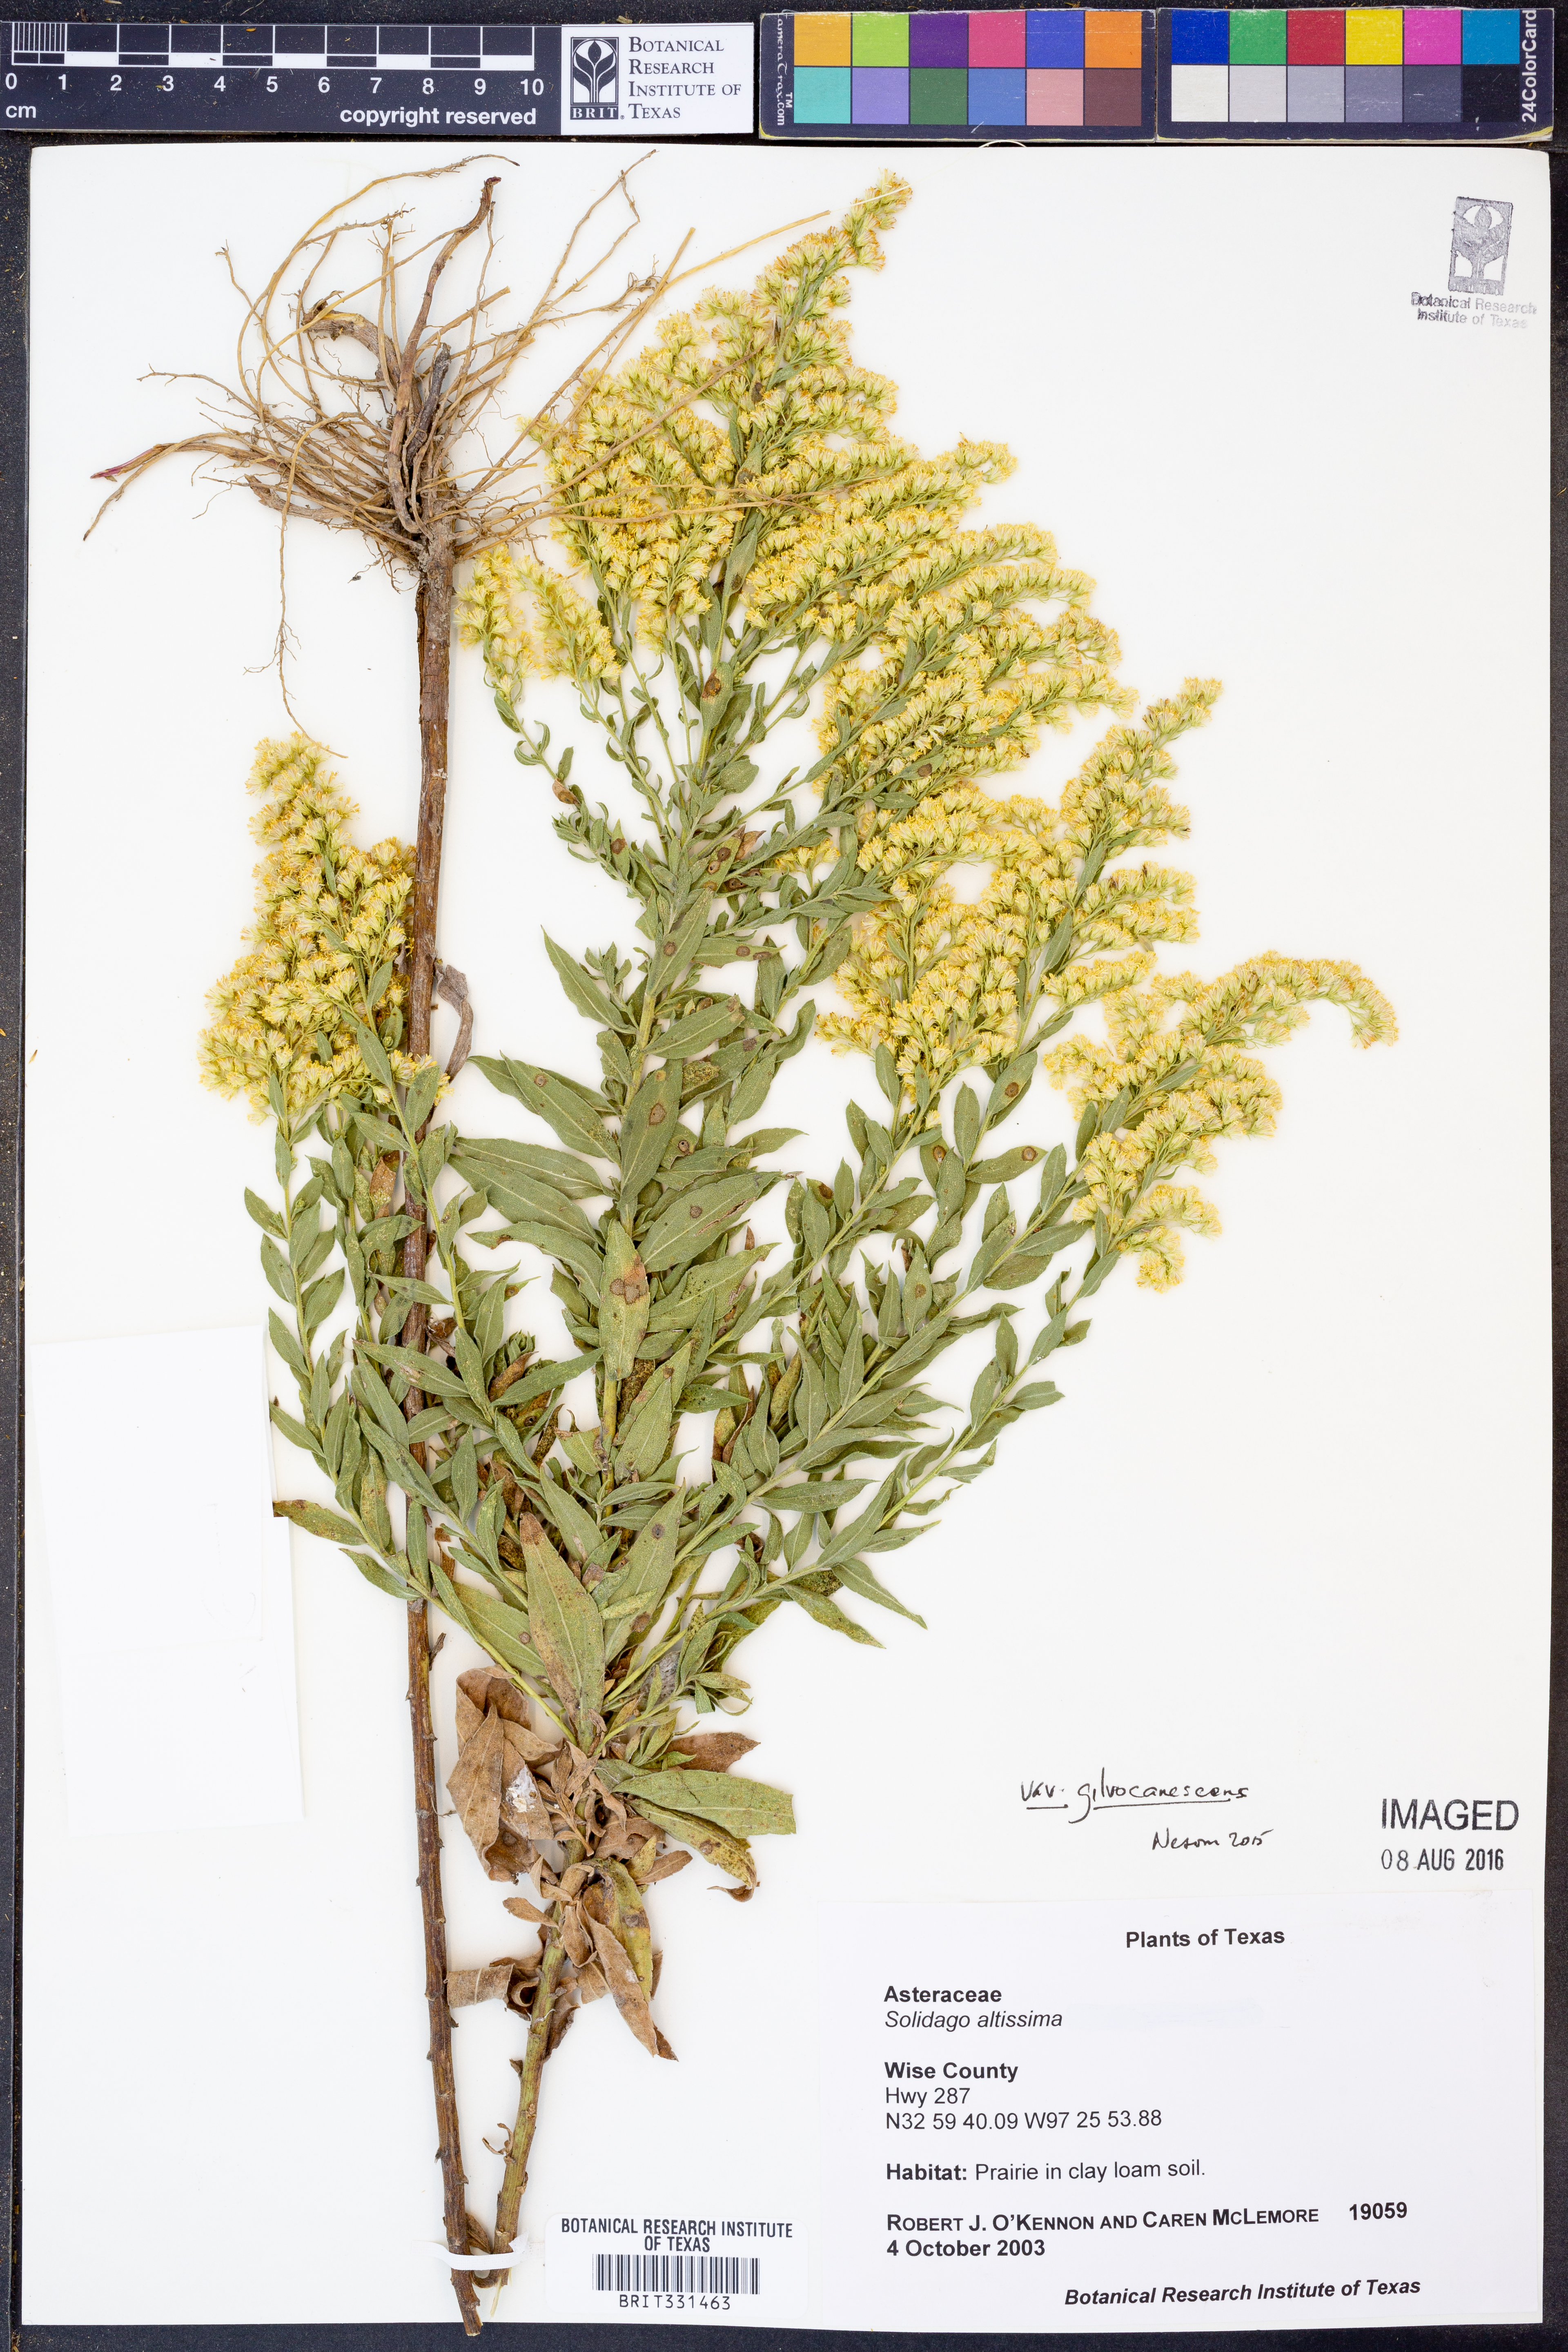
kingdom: Plantae
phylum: Tracheophyta
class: Magnoliopsida
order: Asterales
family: Asteraceae
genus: Solidago
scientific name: Solidago altissima
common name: Late goldenrod
